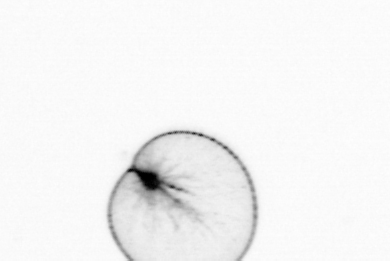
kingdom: Chromista
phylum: Myzozoa
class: Dinophyceae
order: Noctilucales
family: Noctilucaceae
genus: Noctiluca
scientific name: Noctiluca scintillans
